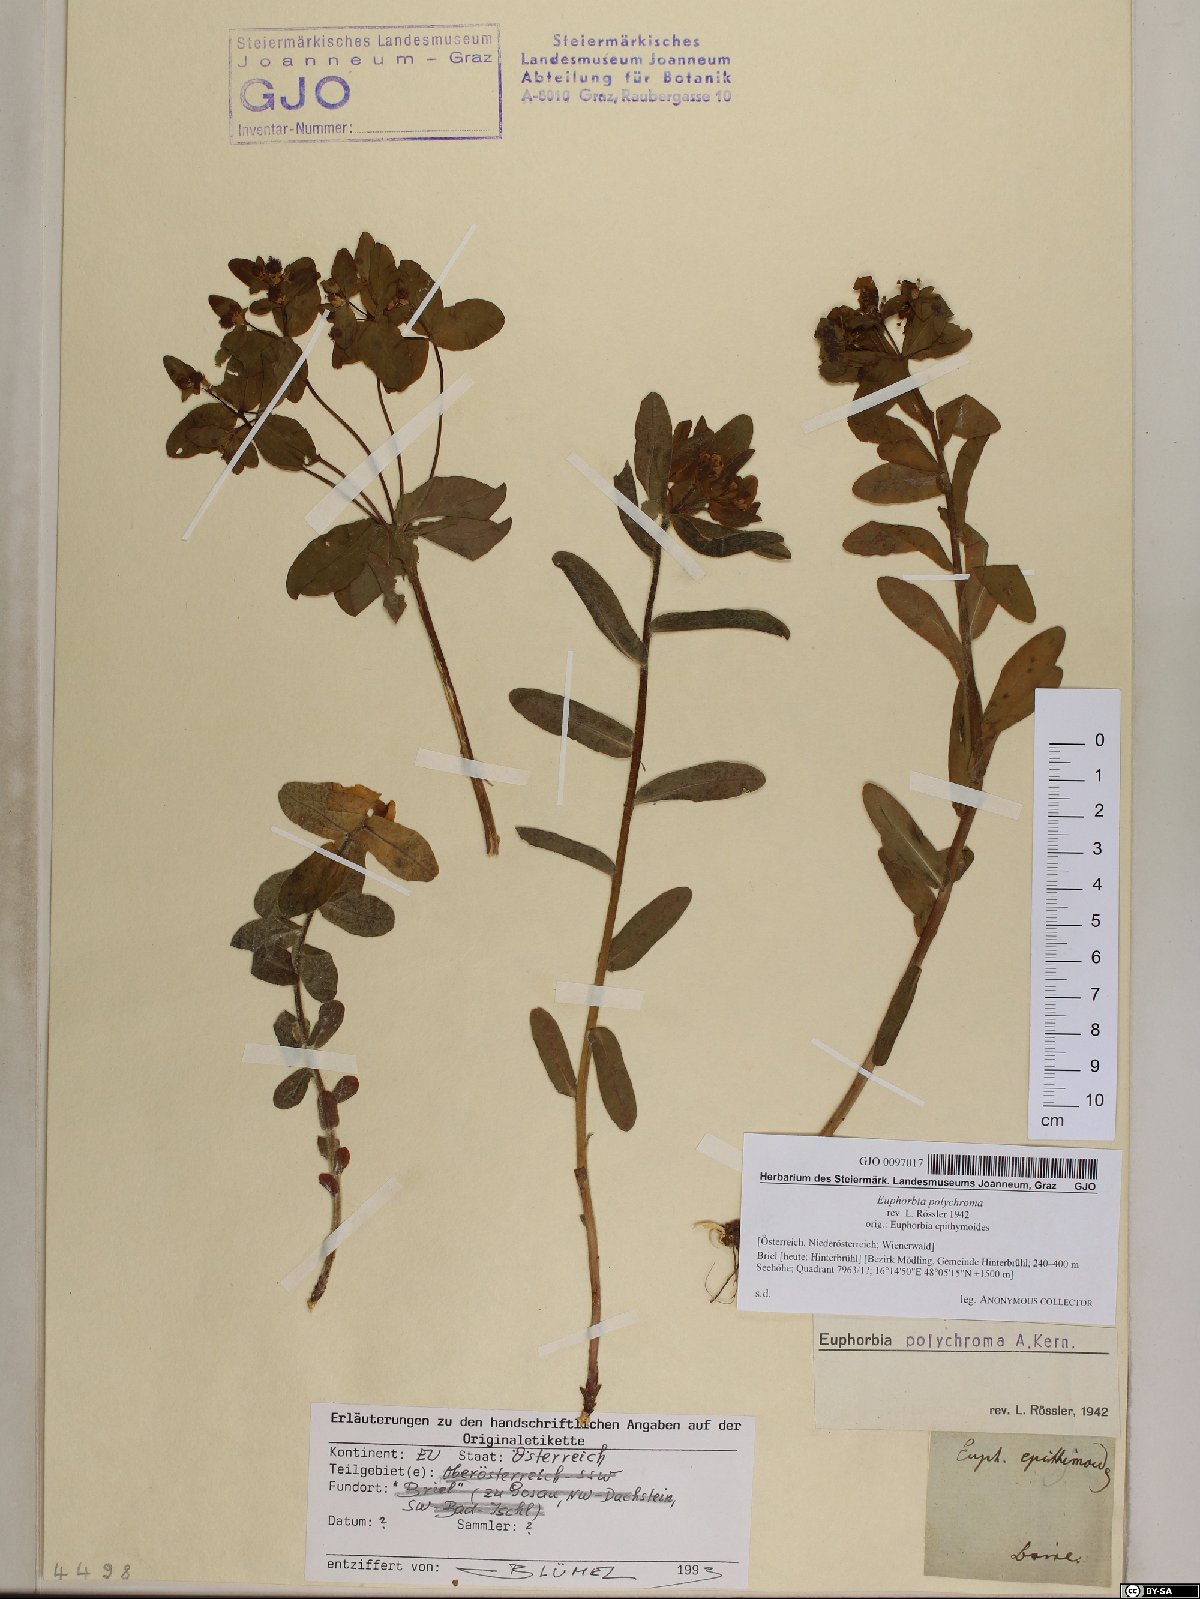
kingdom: Plantae
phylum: Tracheophyta
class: Magnoliopsida
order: Malpighiales
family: Euphorbiaceae
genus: Euphorbia
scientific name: Euphorbia epithymoides
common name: Cushion spurge
